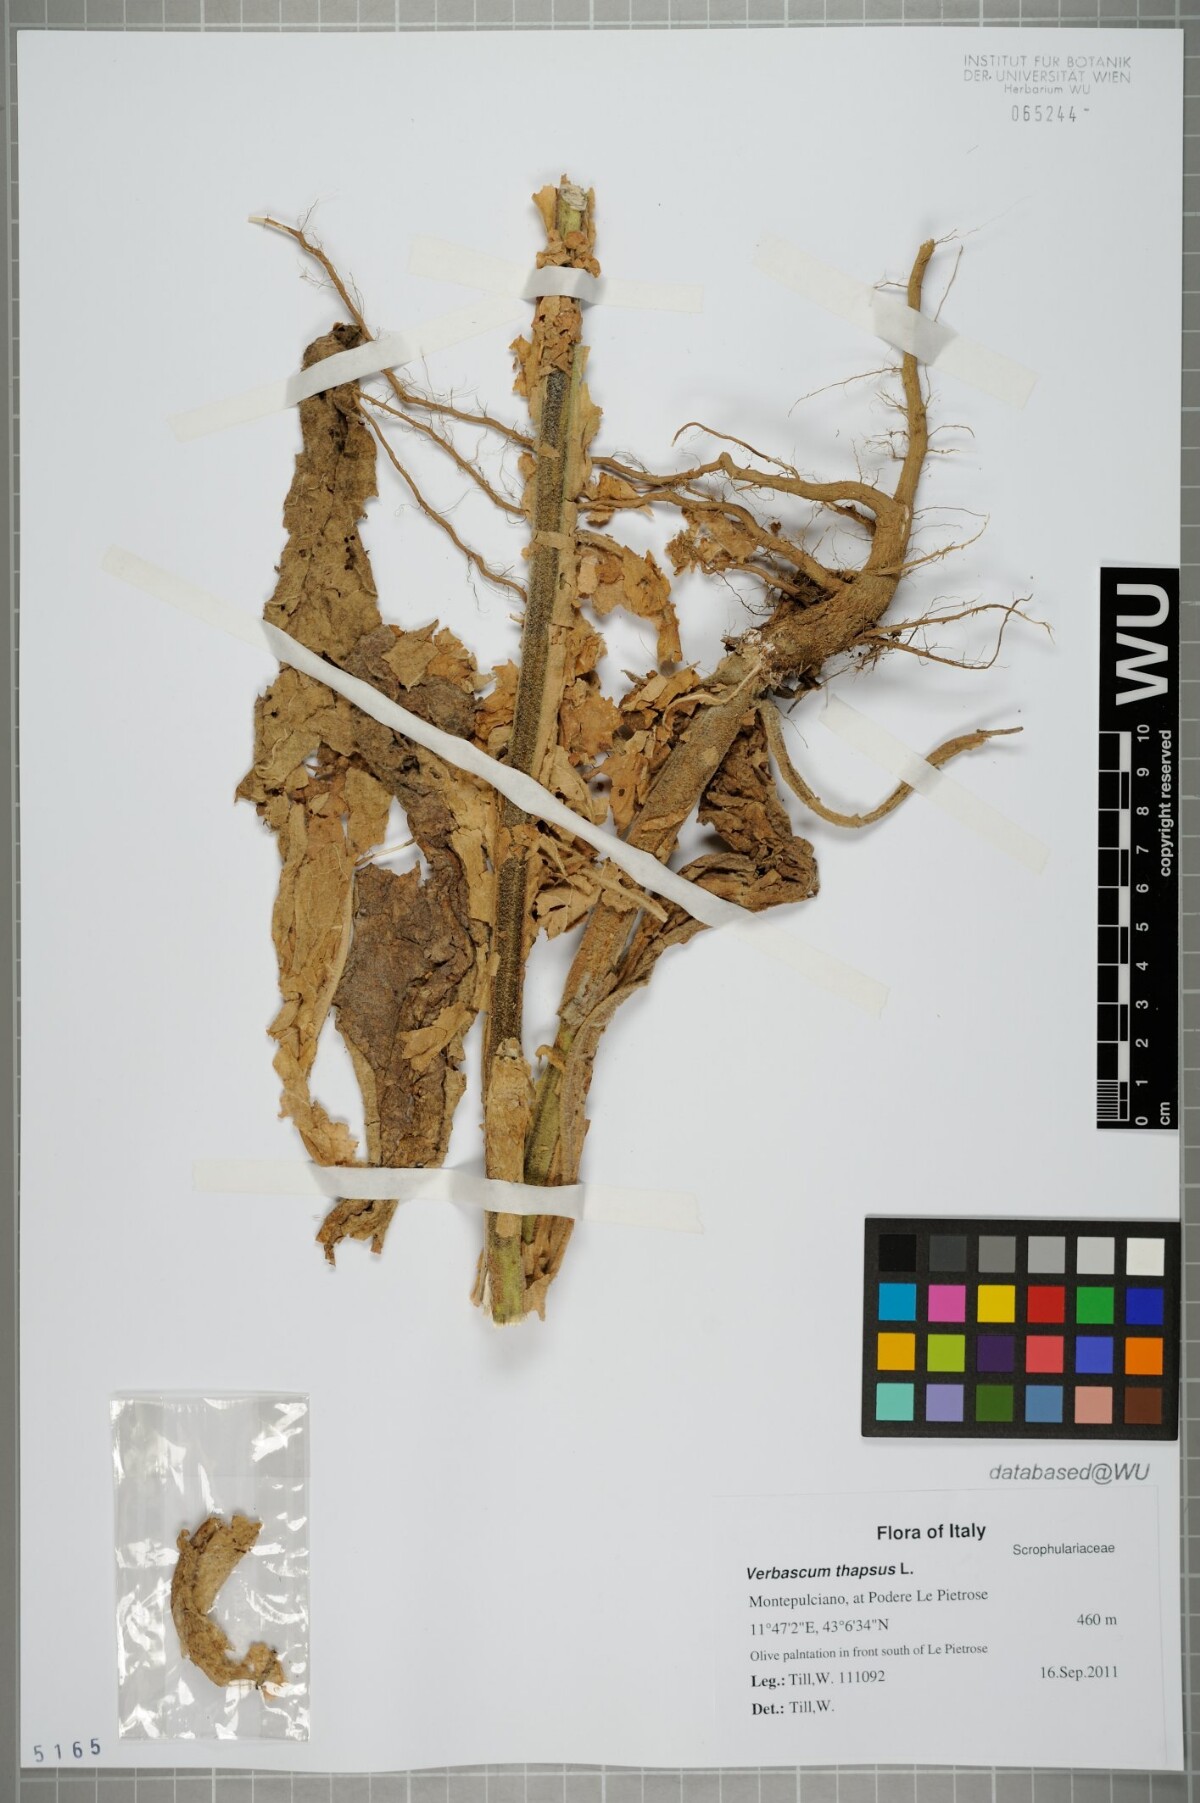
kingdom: Plantae
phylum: Tracheophyta
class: Magnoliopsida
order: Lamiales
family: Scrophulariaceae
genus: Verbascum
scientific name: Verbascum thapsus
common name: Common mullein
